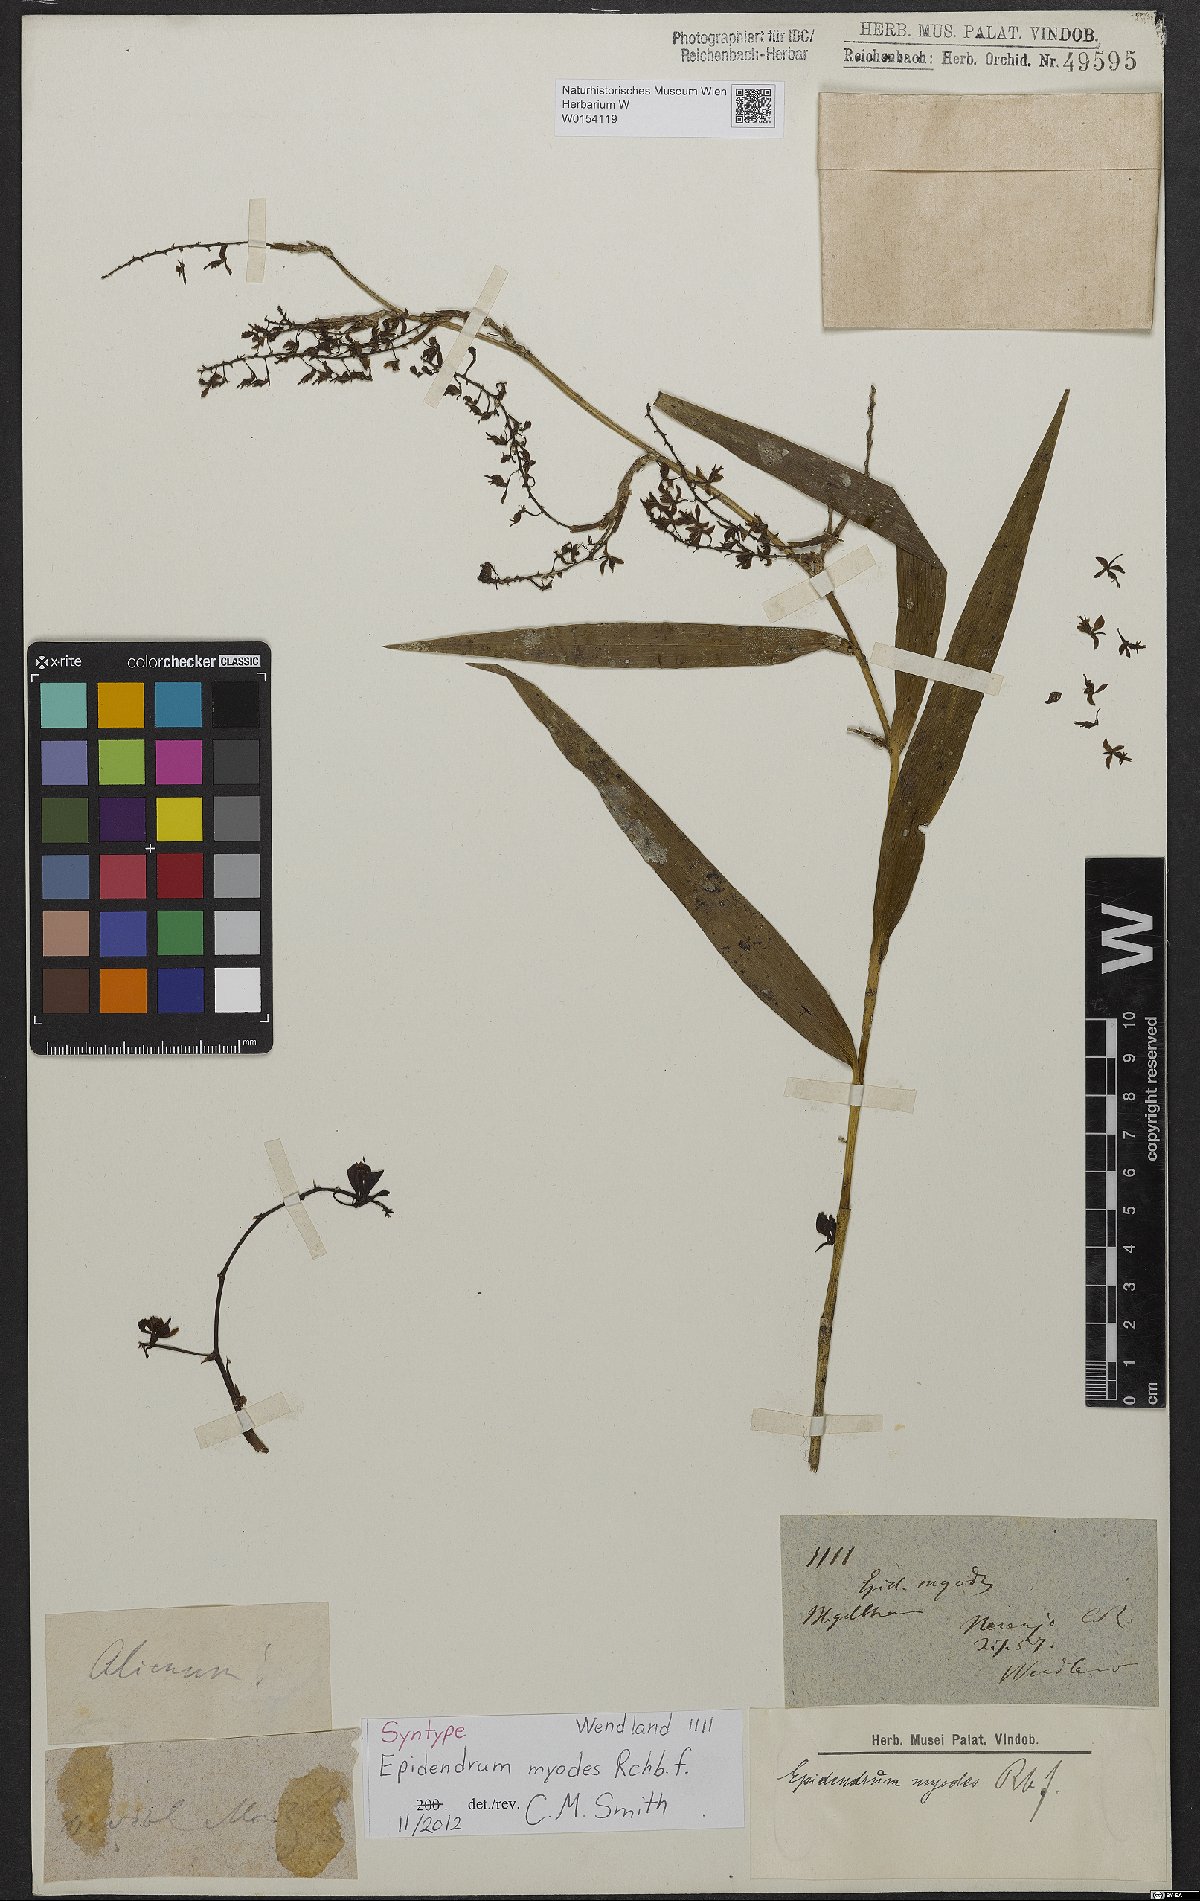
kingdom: Plantae
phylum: Tracheophyta
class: Liliopsida
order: Asparagales
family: Orchidaceae
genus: Epidendrum
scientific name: Epidendrum myodes
